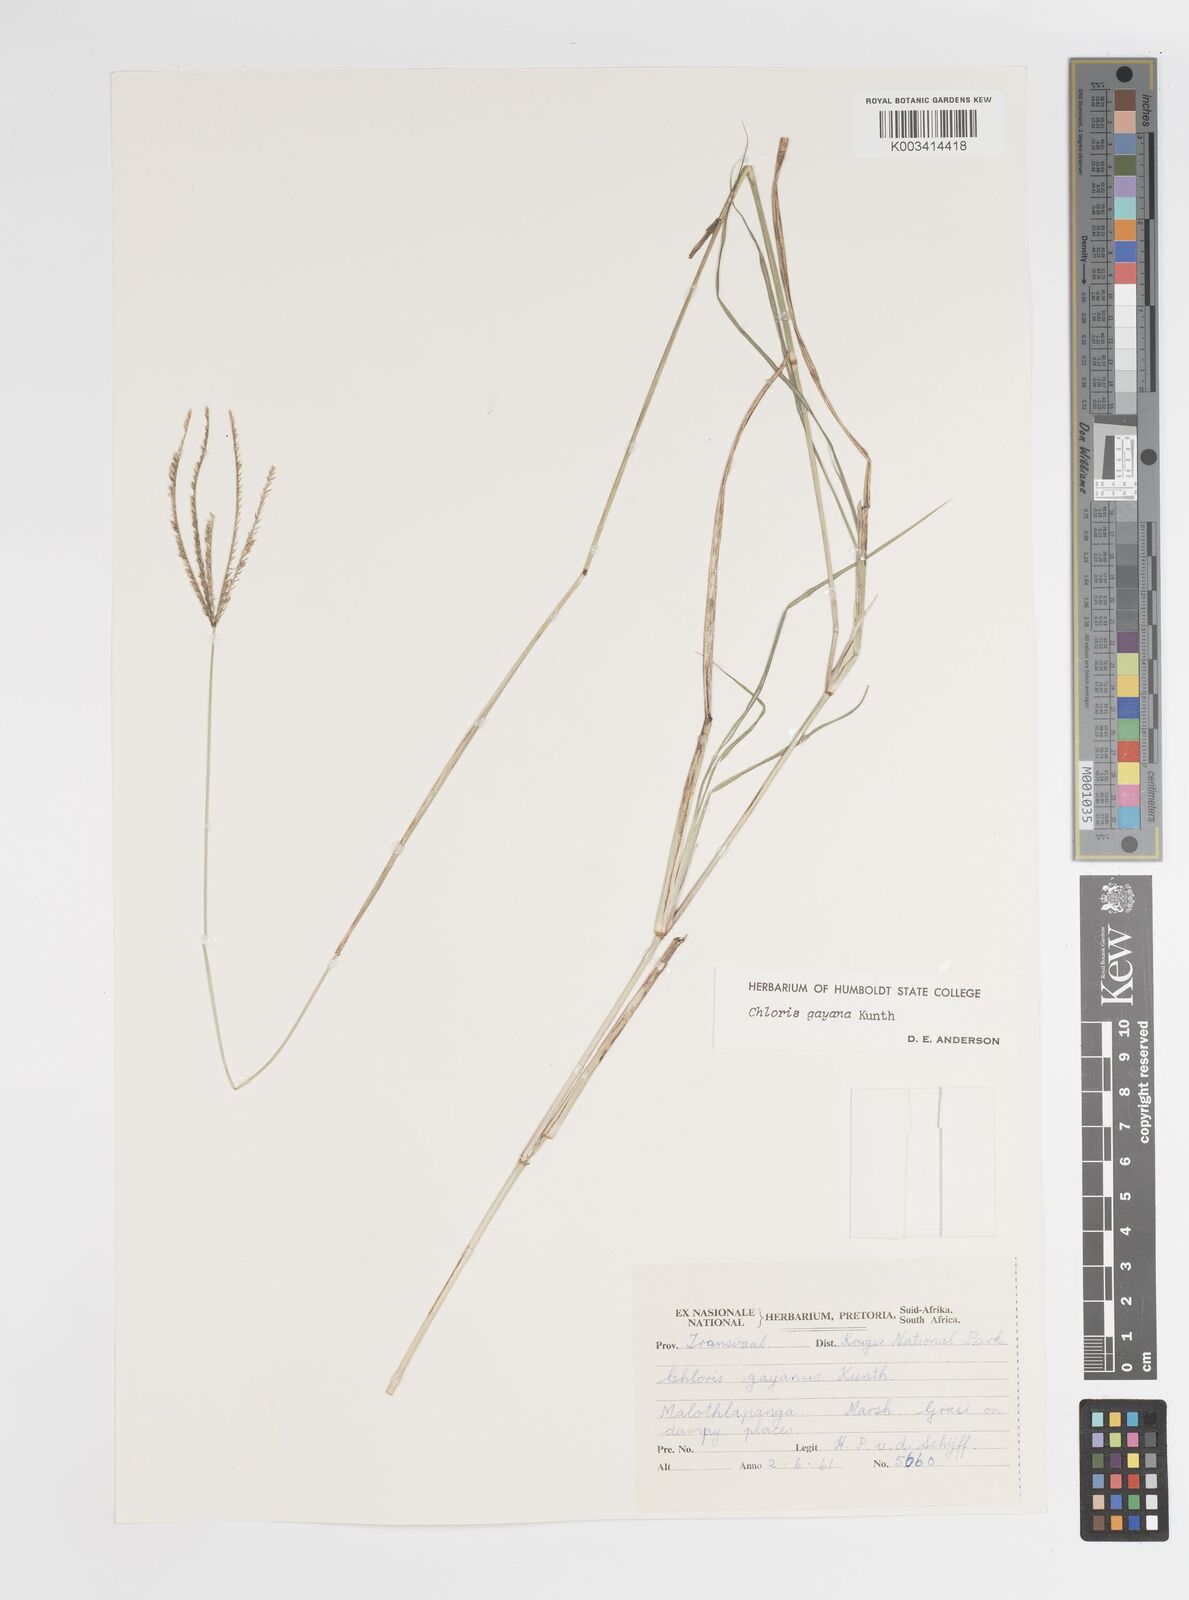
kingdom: Plantae
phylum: Tracheophyta
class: Liliopsida
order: Poales
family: Poaceae
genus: Chloris
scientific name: Chloris gayana
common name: Rhodes grass
